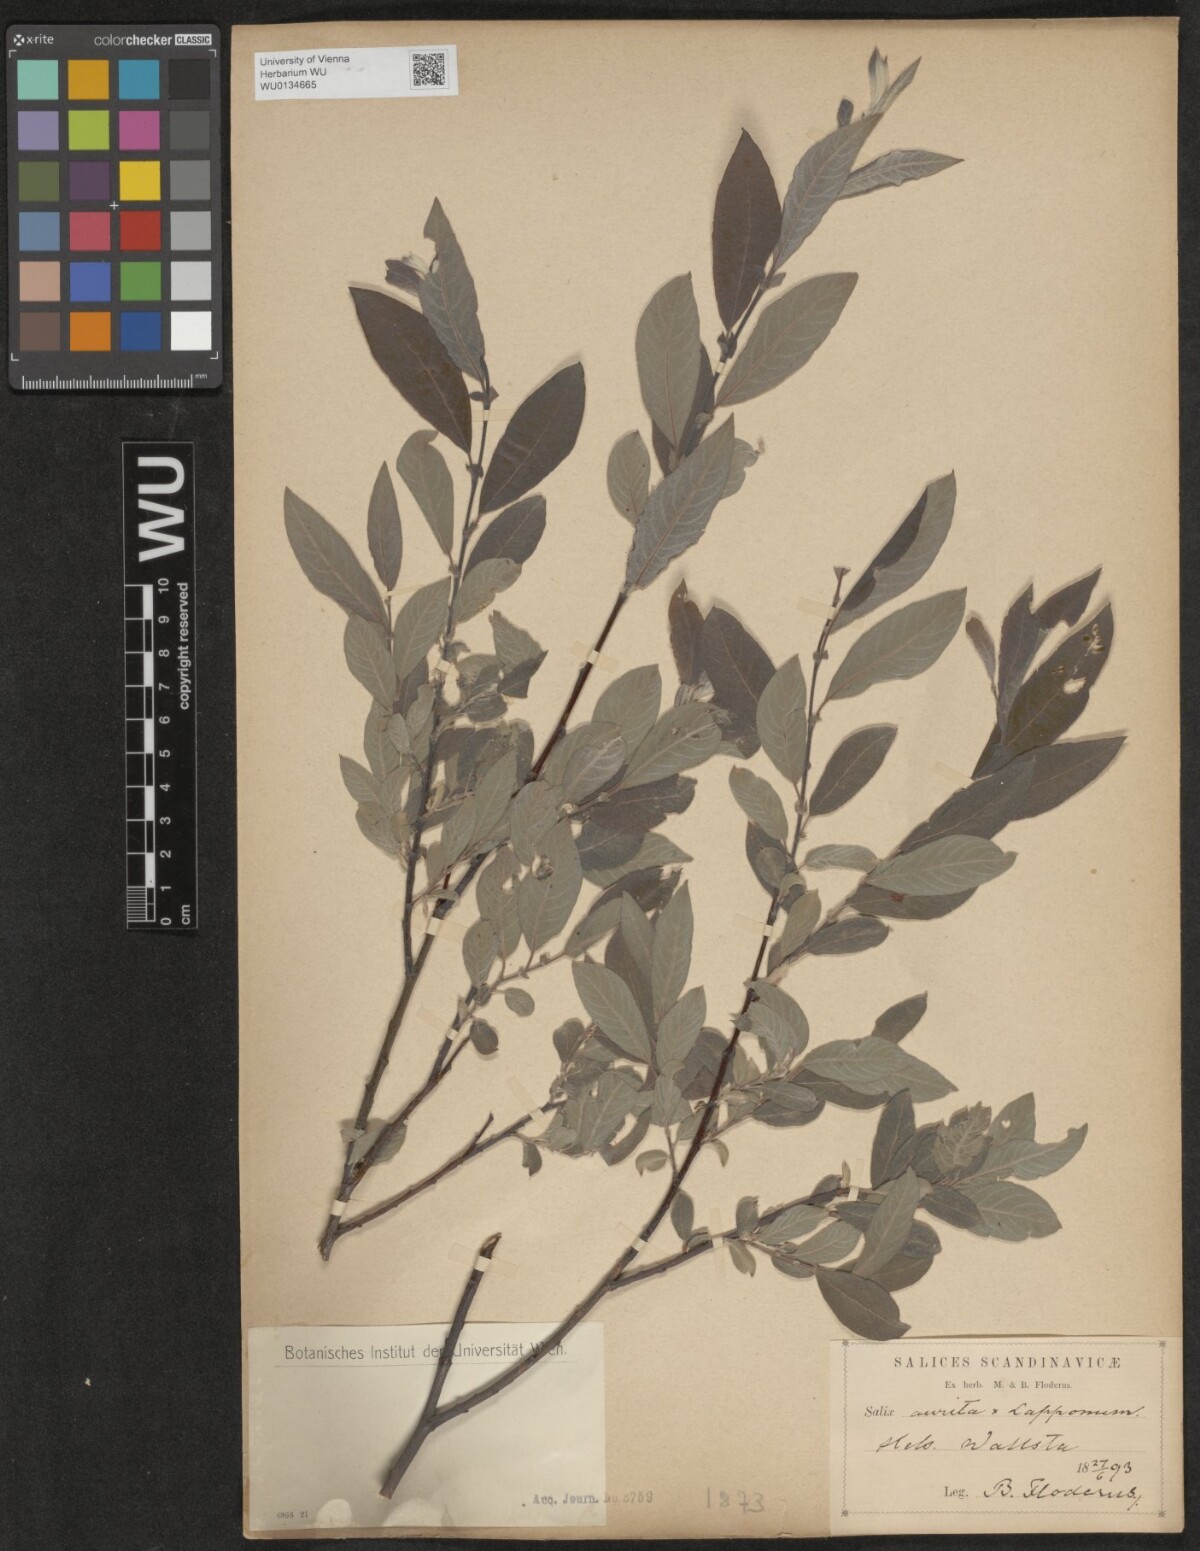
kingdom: Plantae
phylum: Tracheophyta
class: Magnoliopsida
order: Malpighiales
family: Salicaceae
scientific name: Salicaceae
